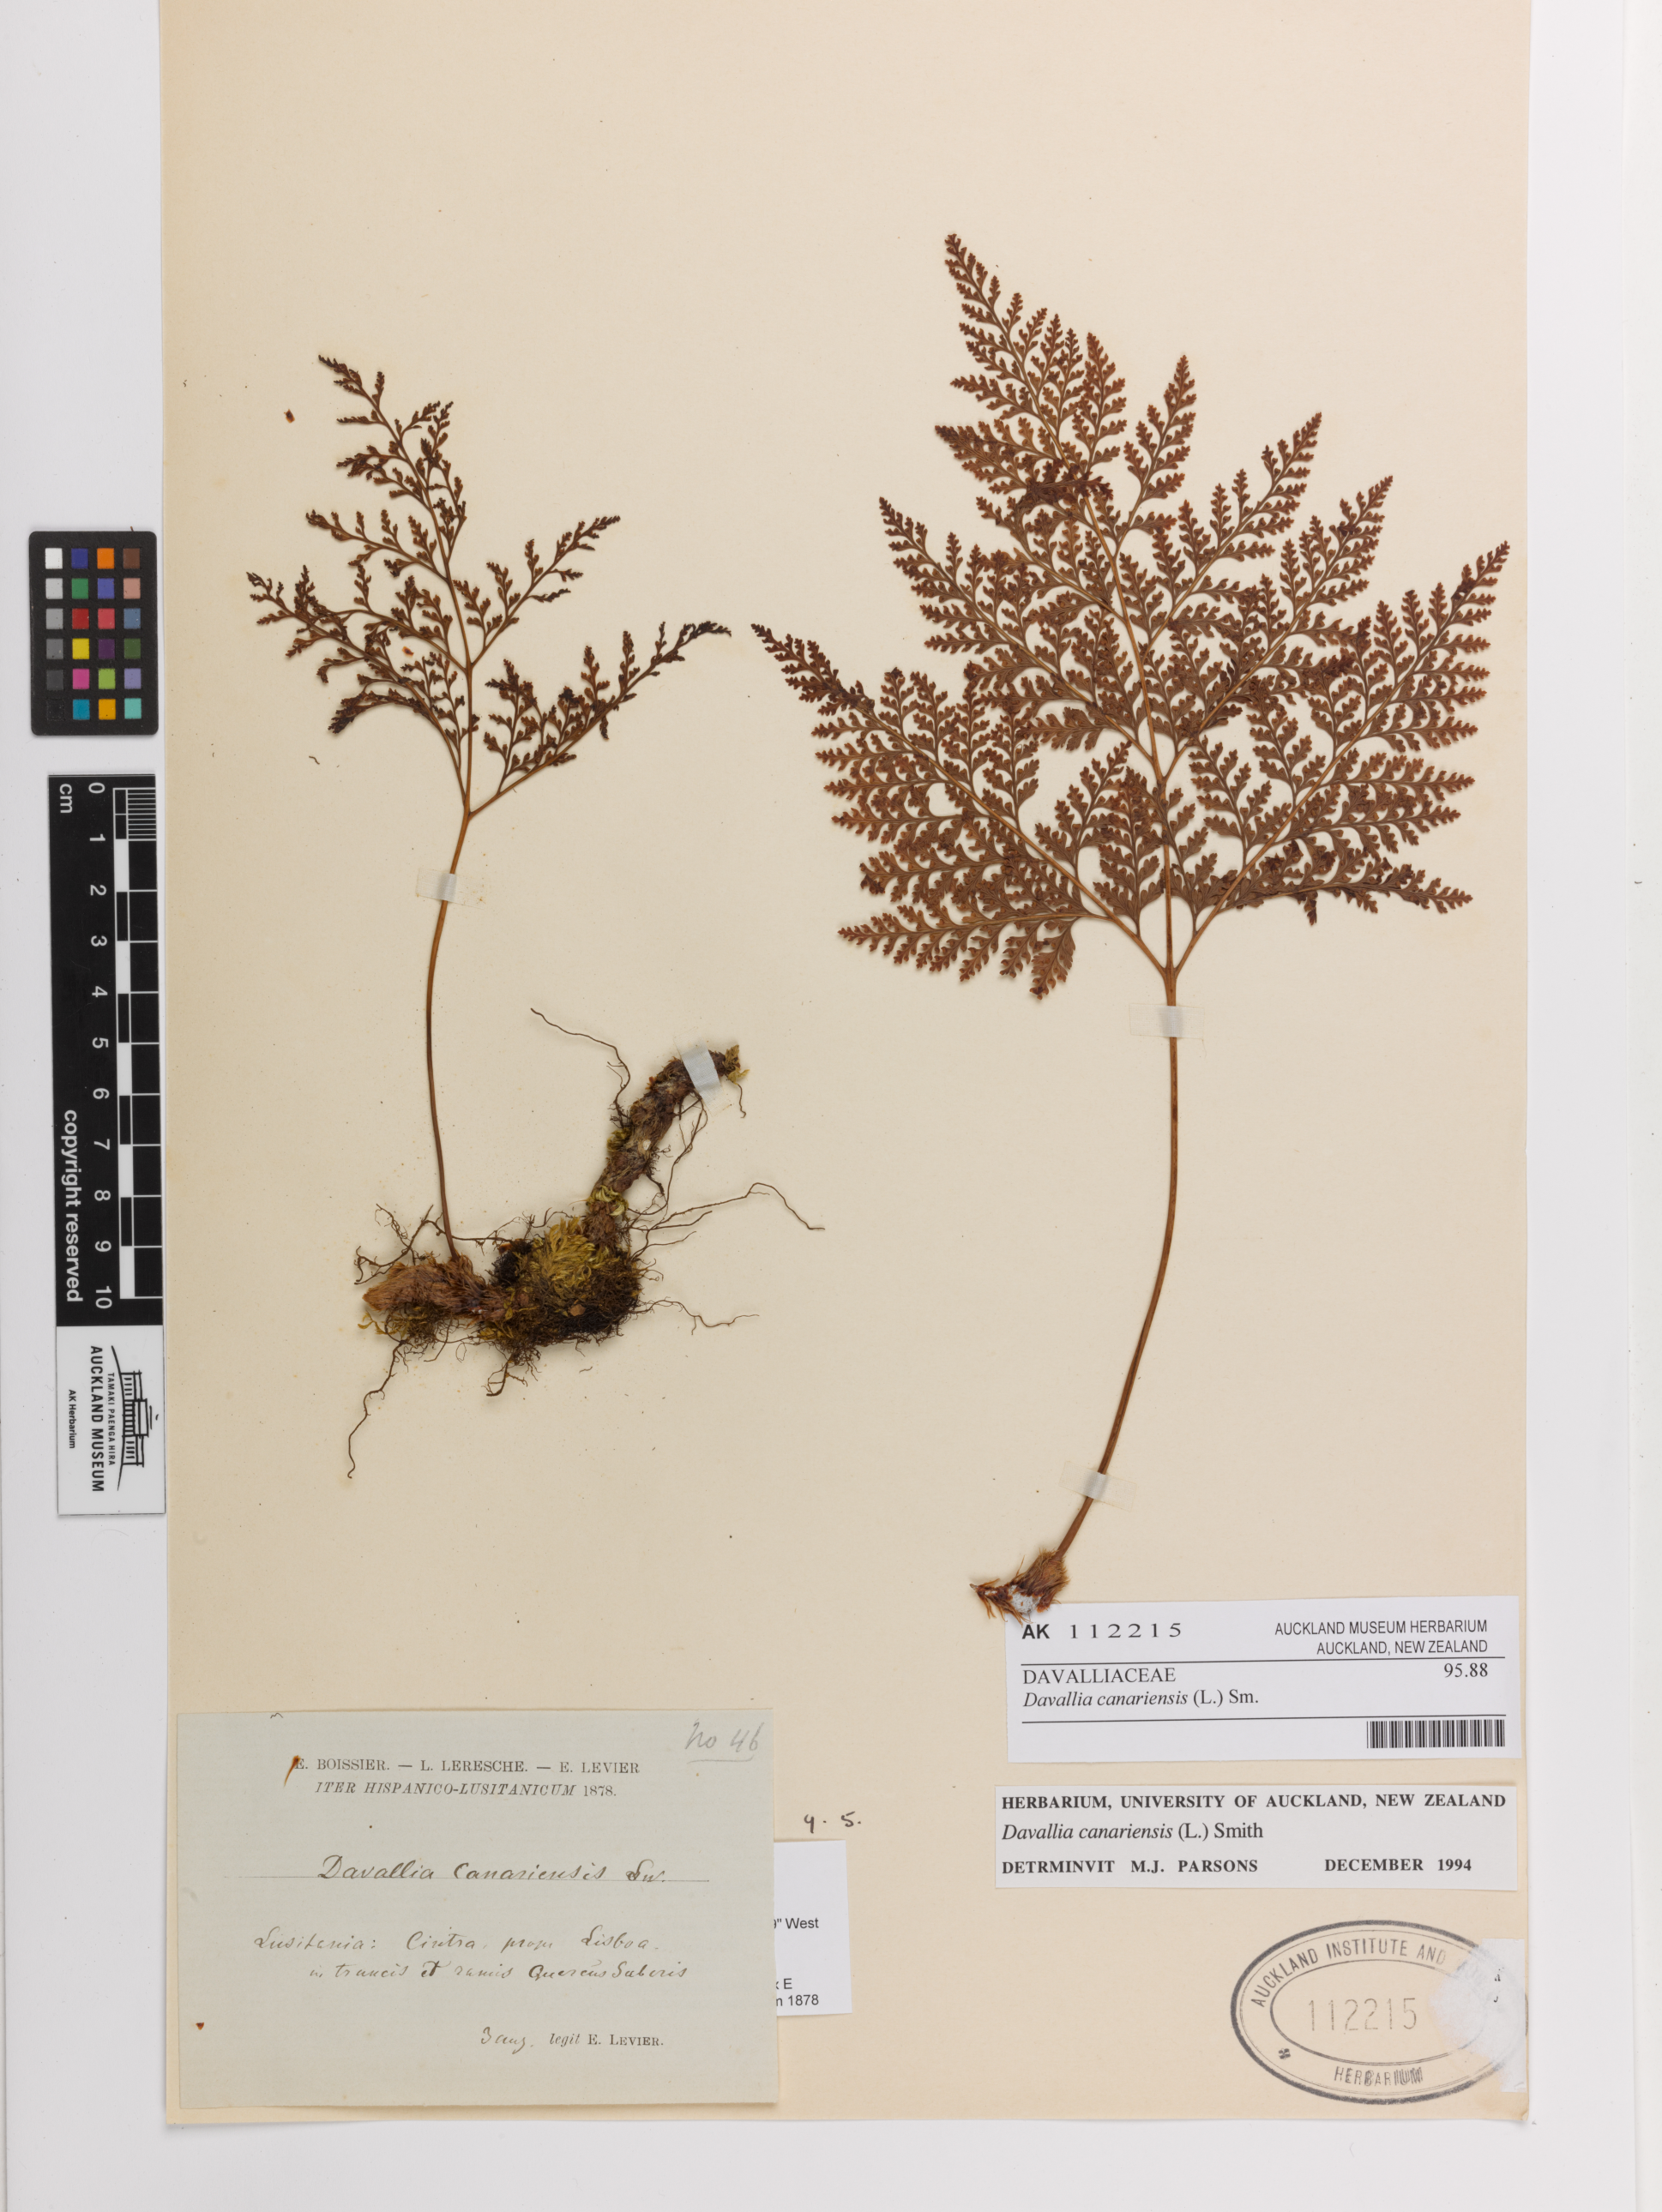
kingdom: Plantae
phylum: Tracheophyta
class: Polypodiopsida
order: Polypodiales
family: Davalliaceae
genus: Davallia
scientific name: Davallia canariensis
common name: Hare's-foot fern
